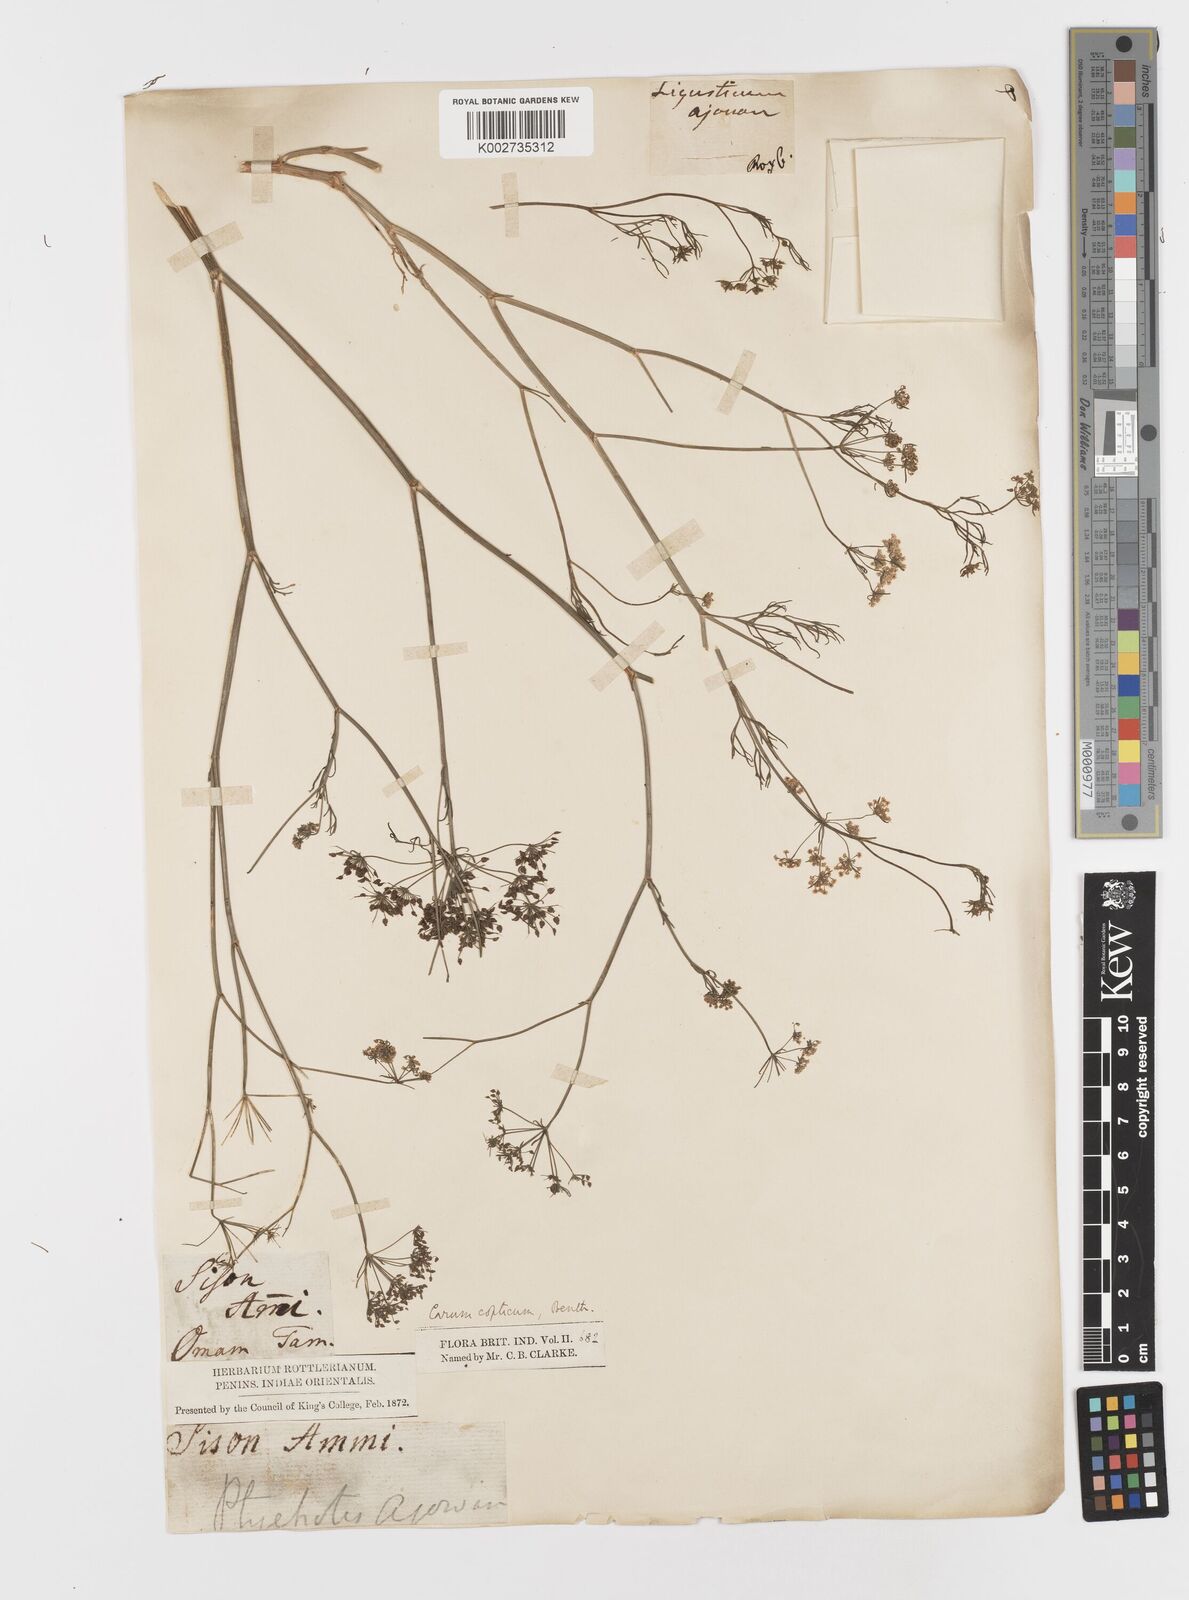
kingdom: Plantae
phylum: Tracheophyta
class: Magnoliopsida
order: Apiales
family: Apiaceae
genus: Trachyspermum
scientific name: Trachyspermum ammi
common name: Ajowan
